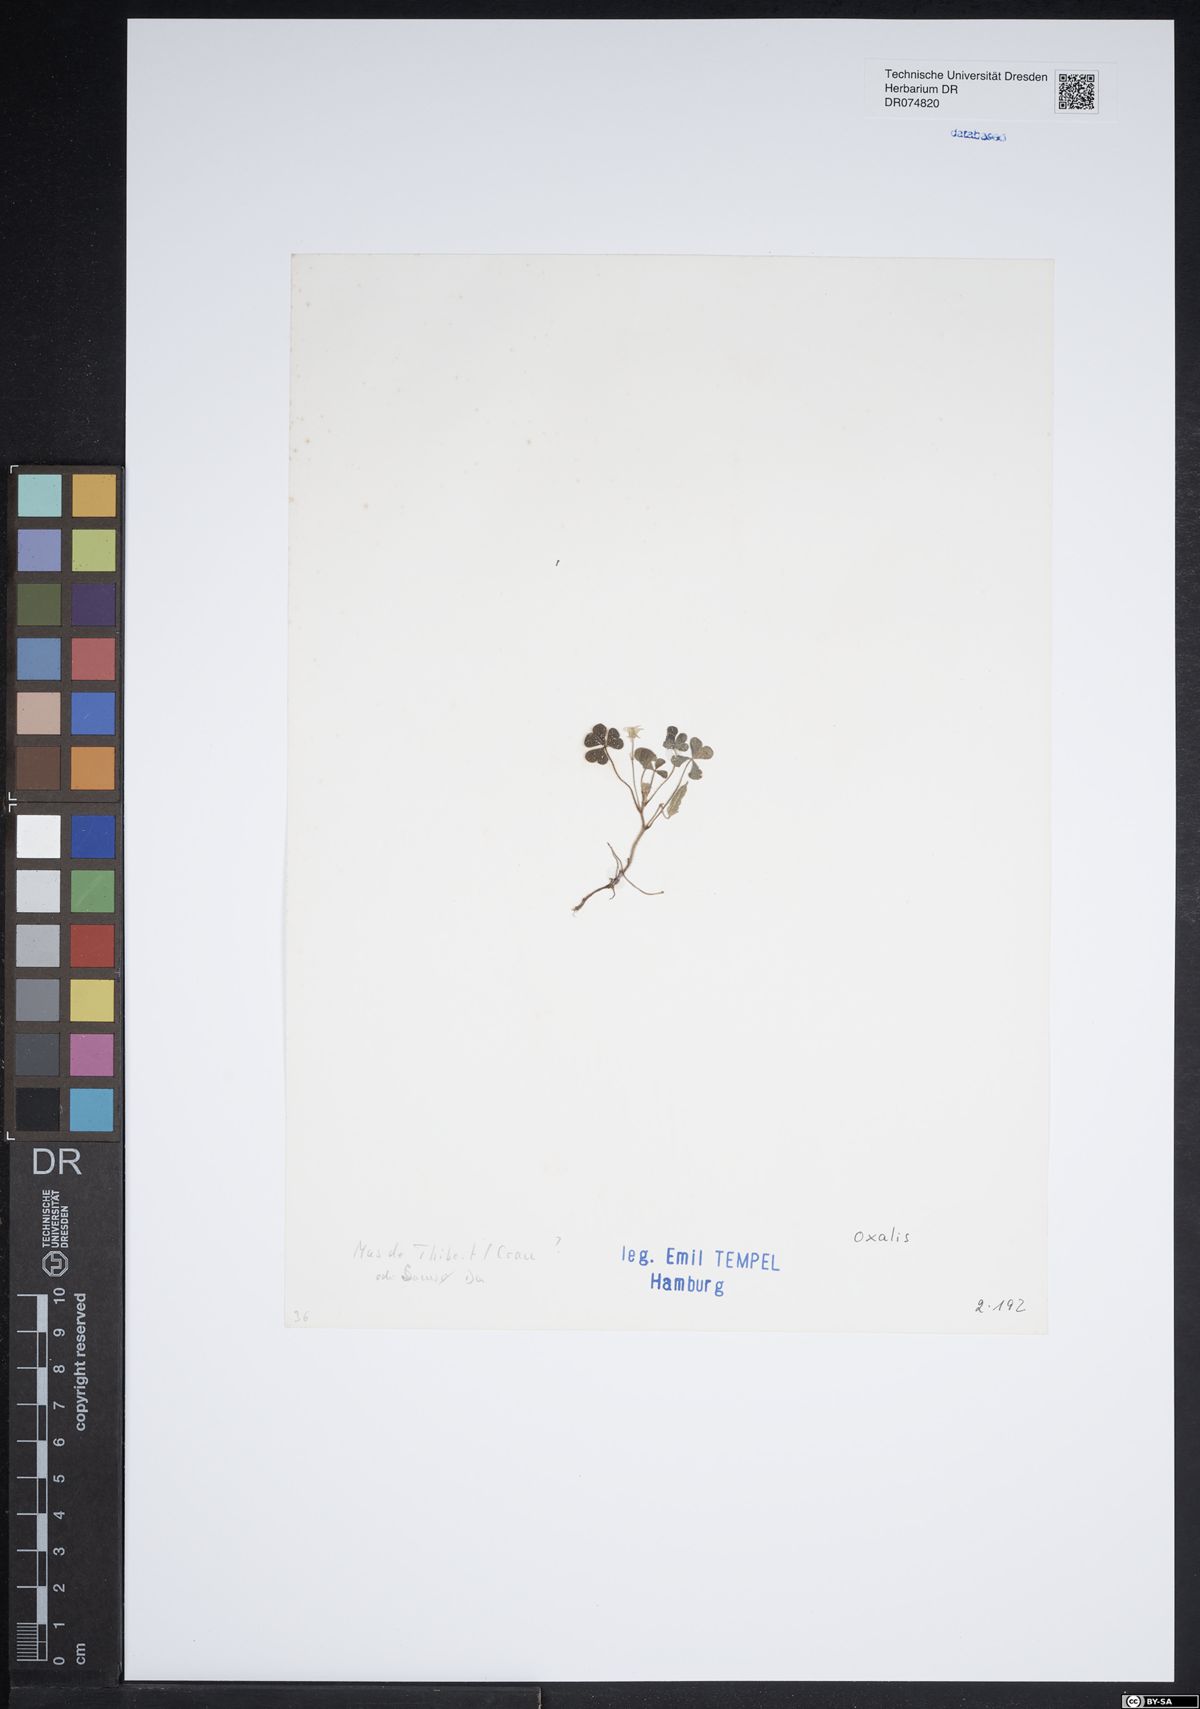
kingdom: Plantae
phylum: Tracheophyta
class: Magnoliopsida
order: Oxalidales
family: Oxalidaceae
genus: Oxalis
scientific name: Oxalis
